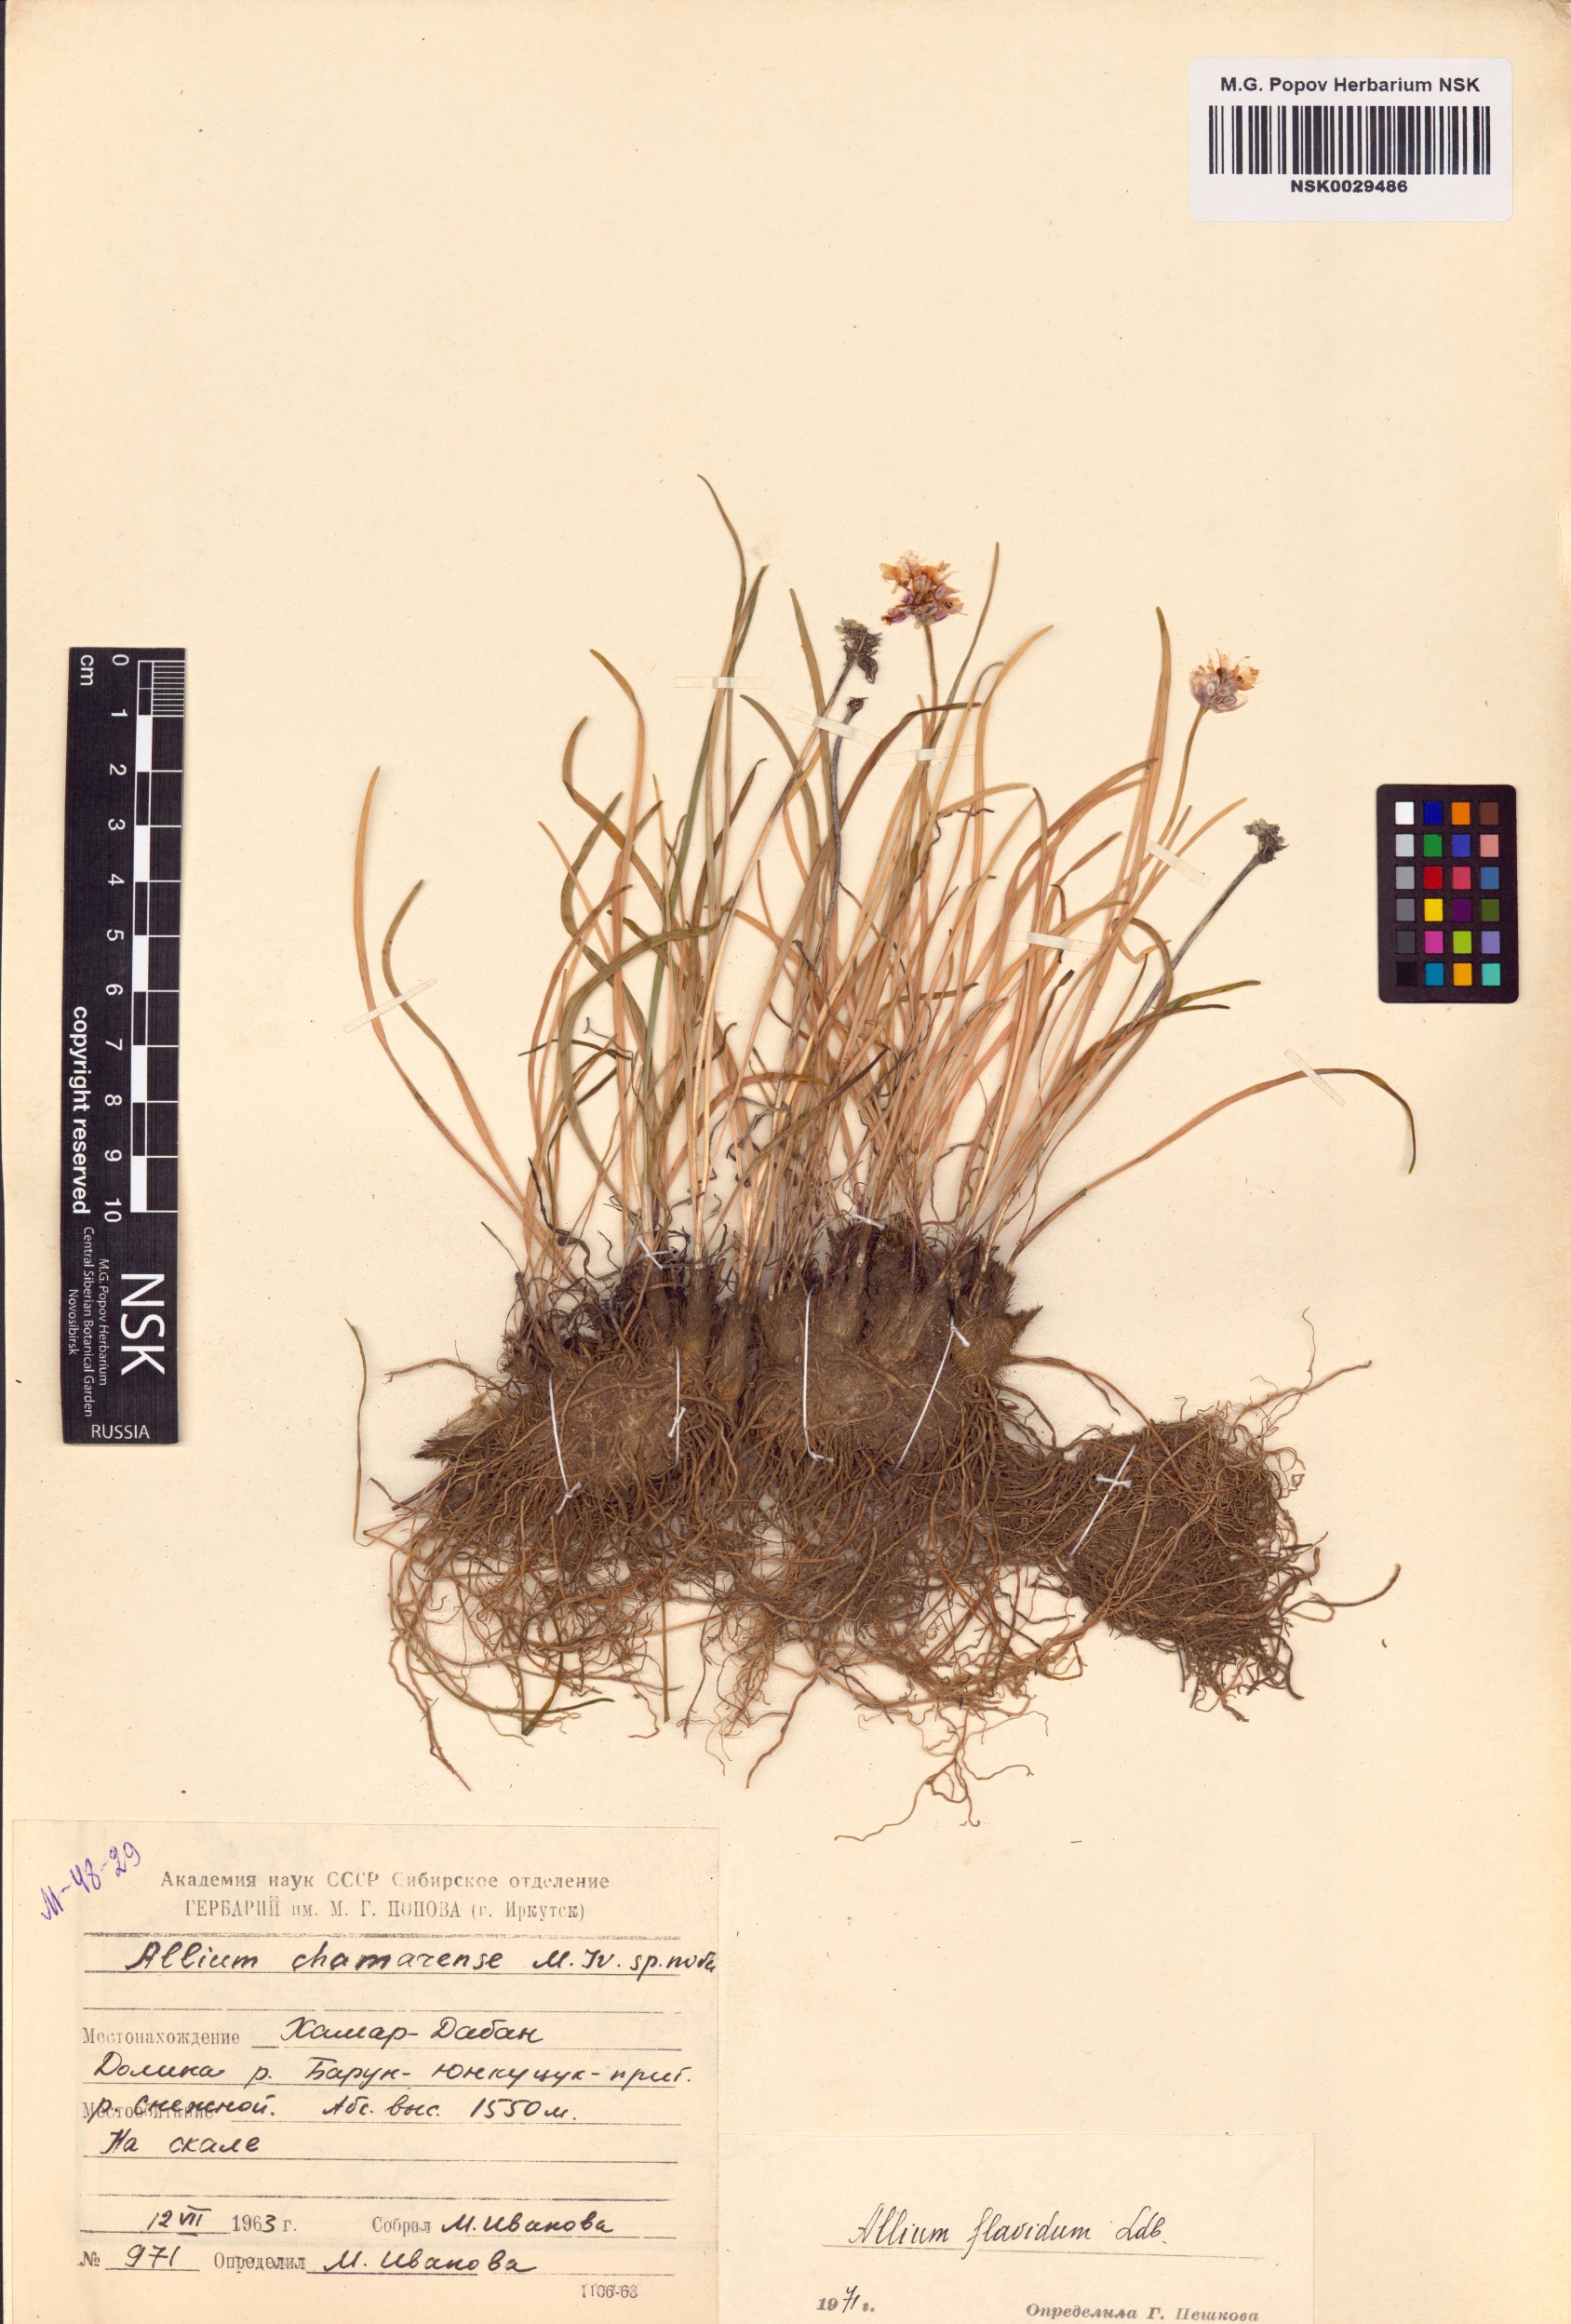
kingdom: Plantae
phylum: Tracheophyta
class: Liliopsida
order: Asparagales
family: Amaryllidaceae
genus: Allium
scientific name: Allium flavidum
